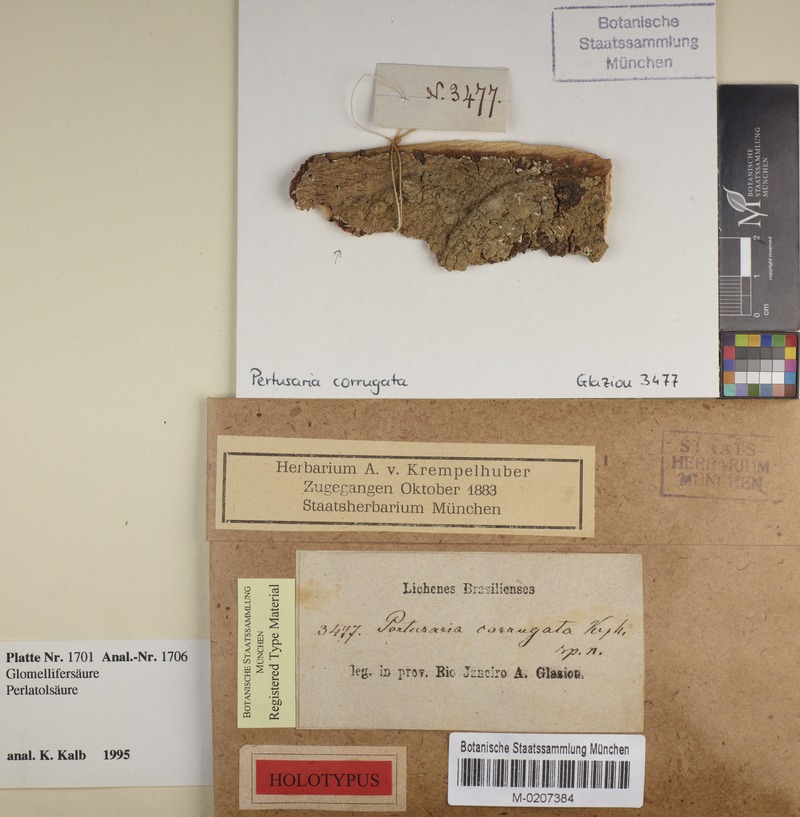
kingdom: Fungi
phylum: Ascomycota
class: Lecanoromycetes
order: Pertusariales
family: Pertusariaceae
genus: Pertusaria
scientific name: Pertusaria
